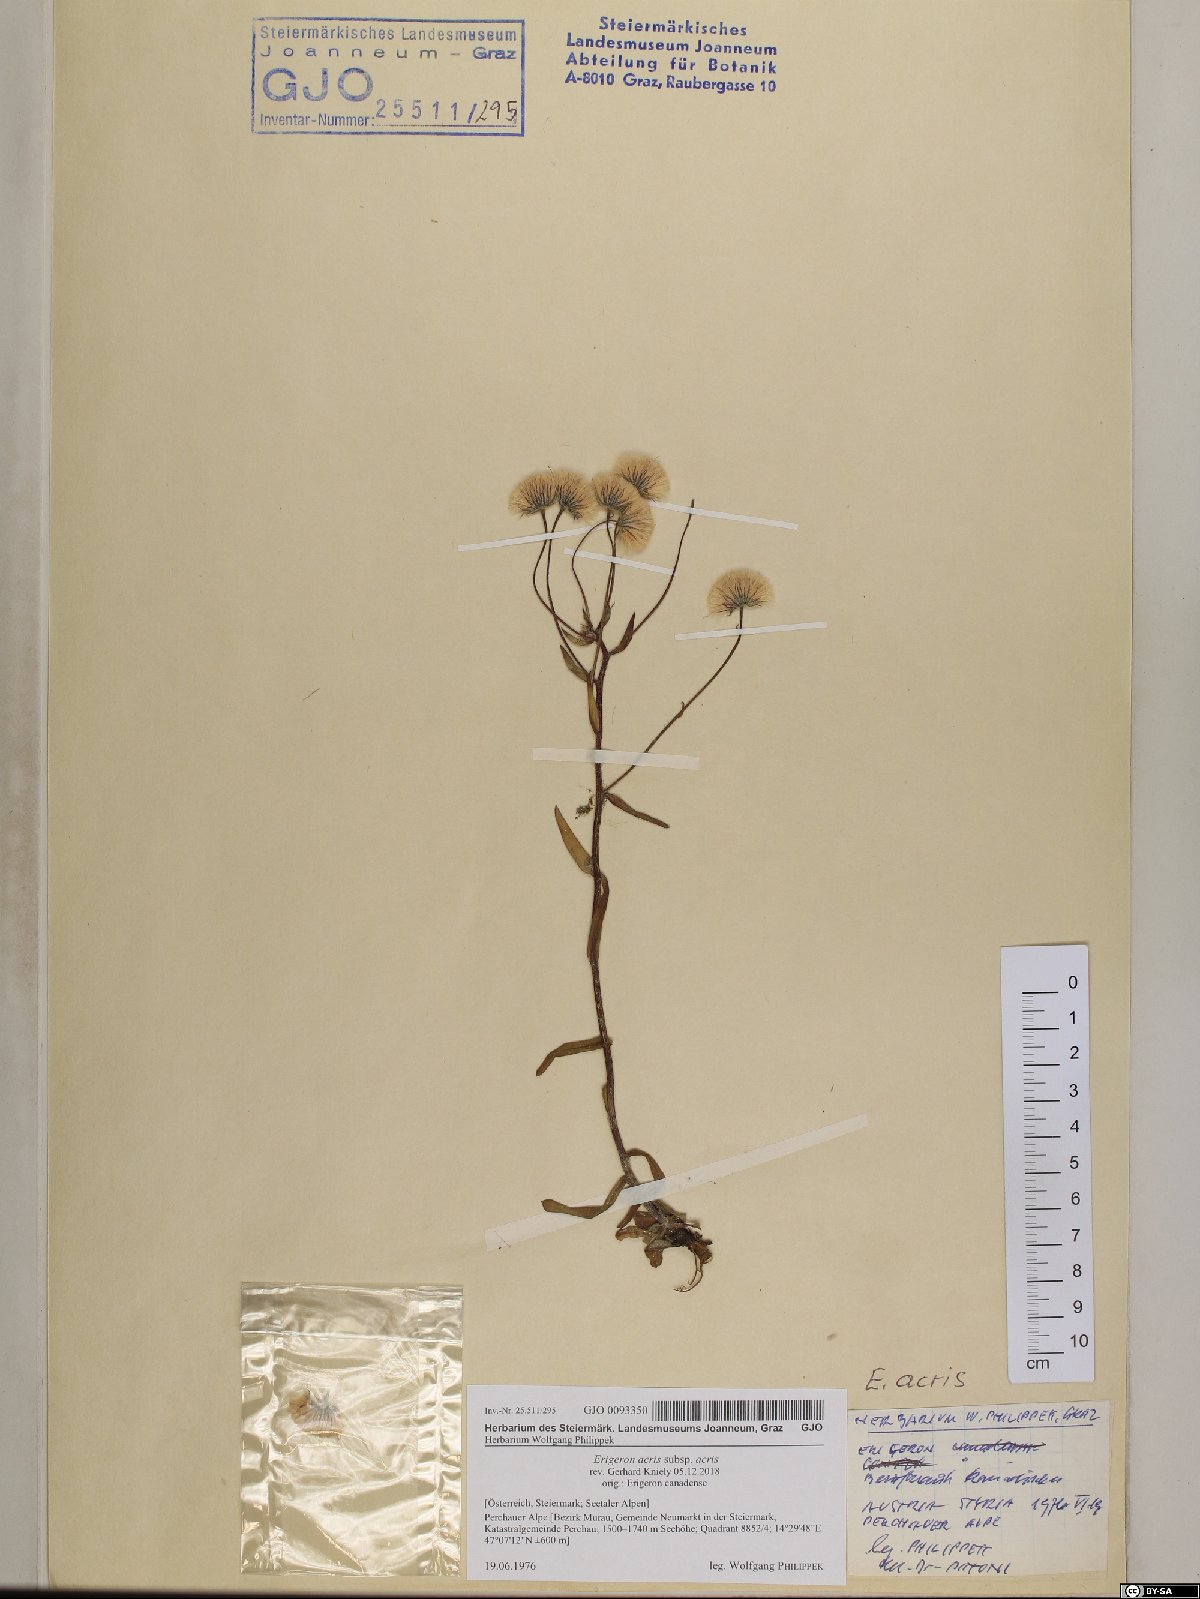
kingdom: Plantae
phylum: Tracheophyta
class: Magnoliopsida
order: Asterales
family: Asteraceae
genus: Erigeron
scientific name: Erigeron acris
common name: Blue fleabane
